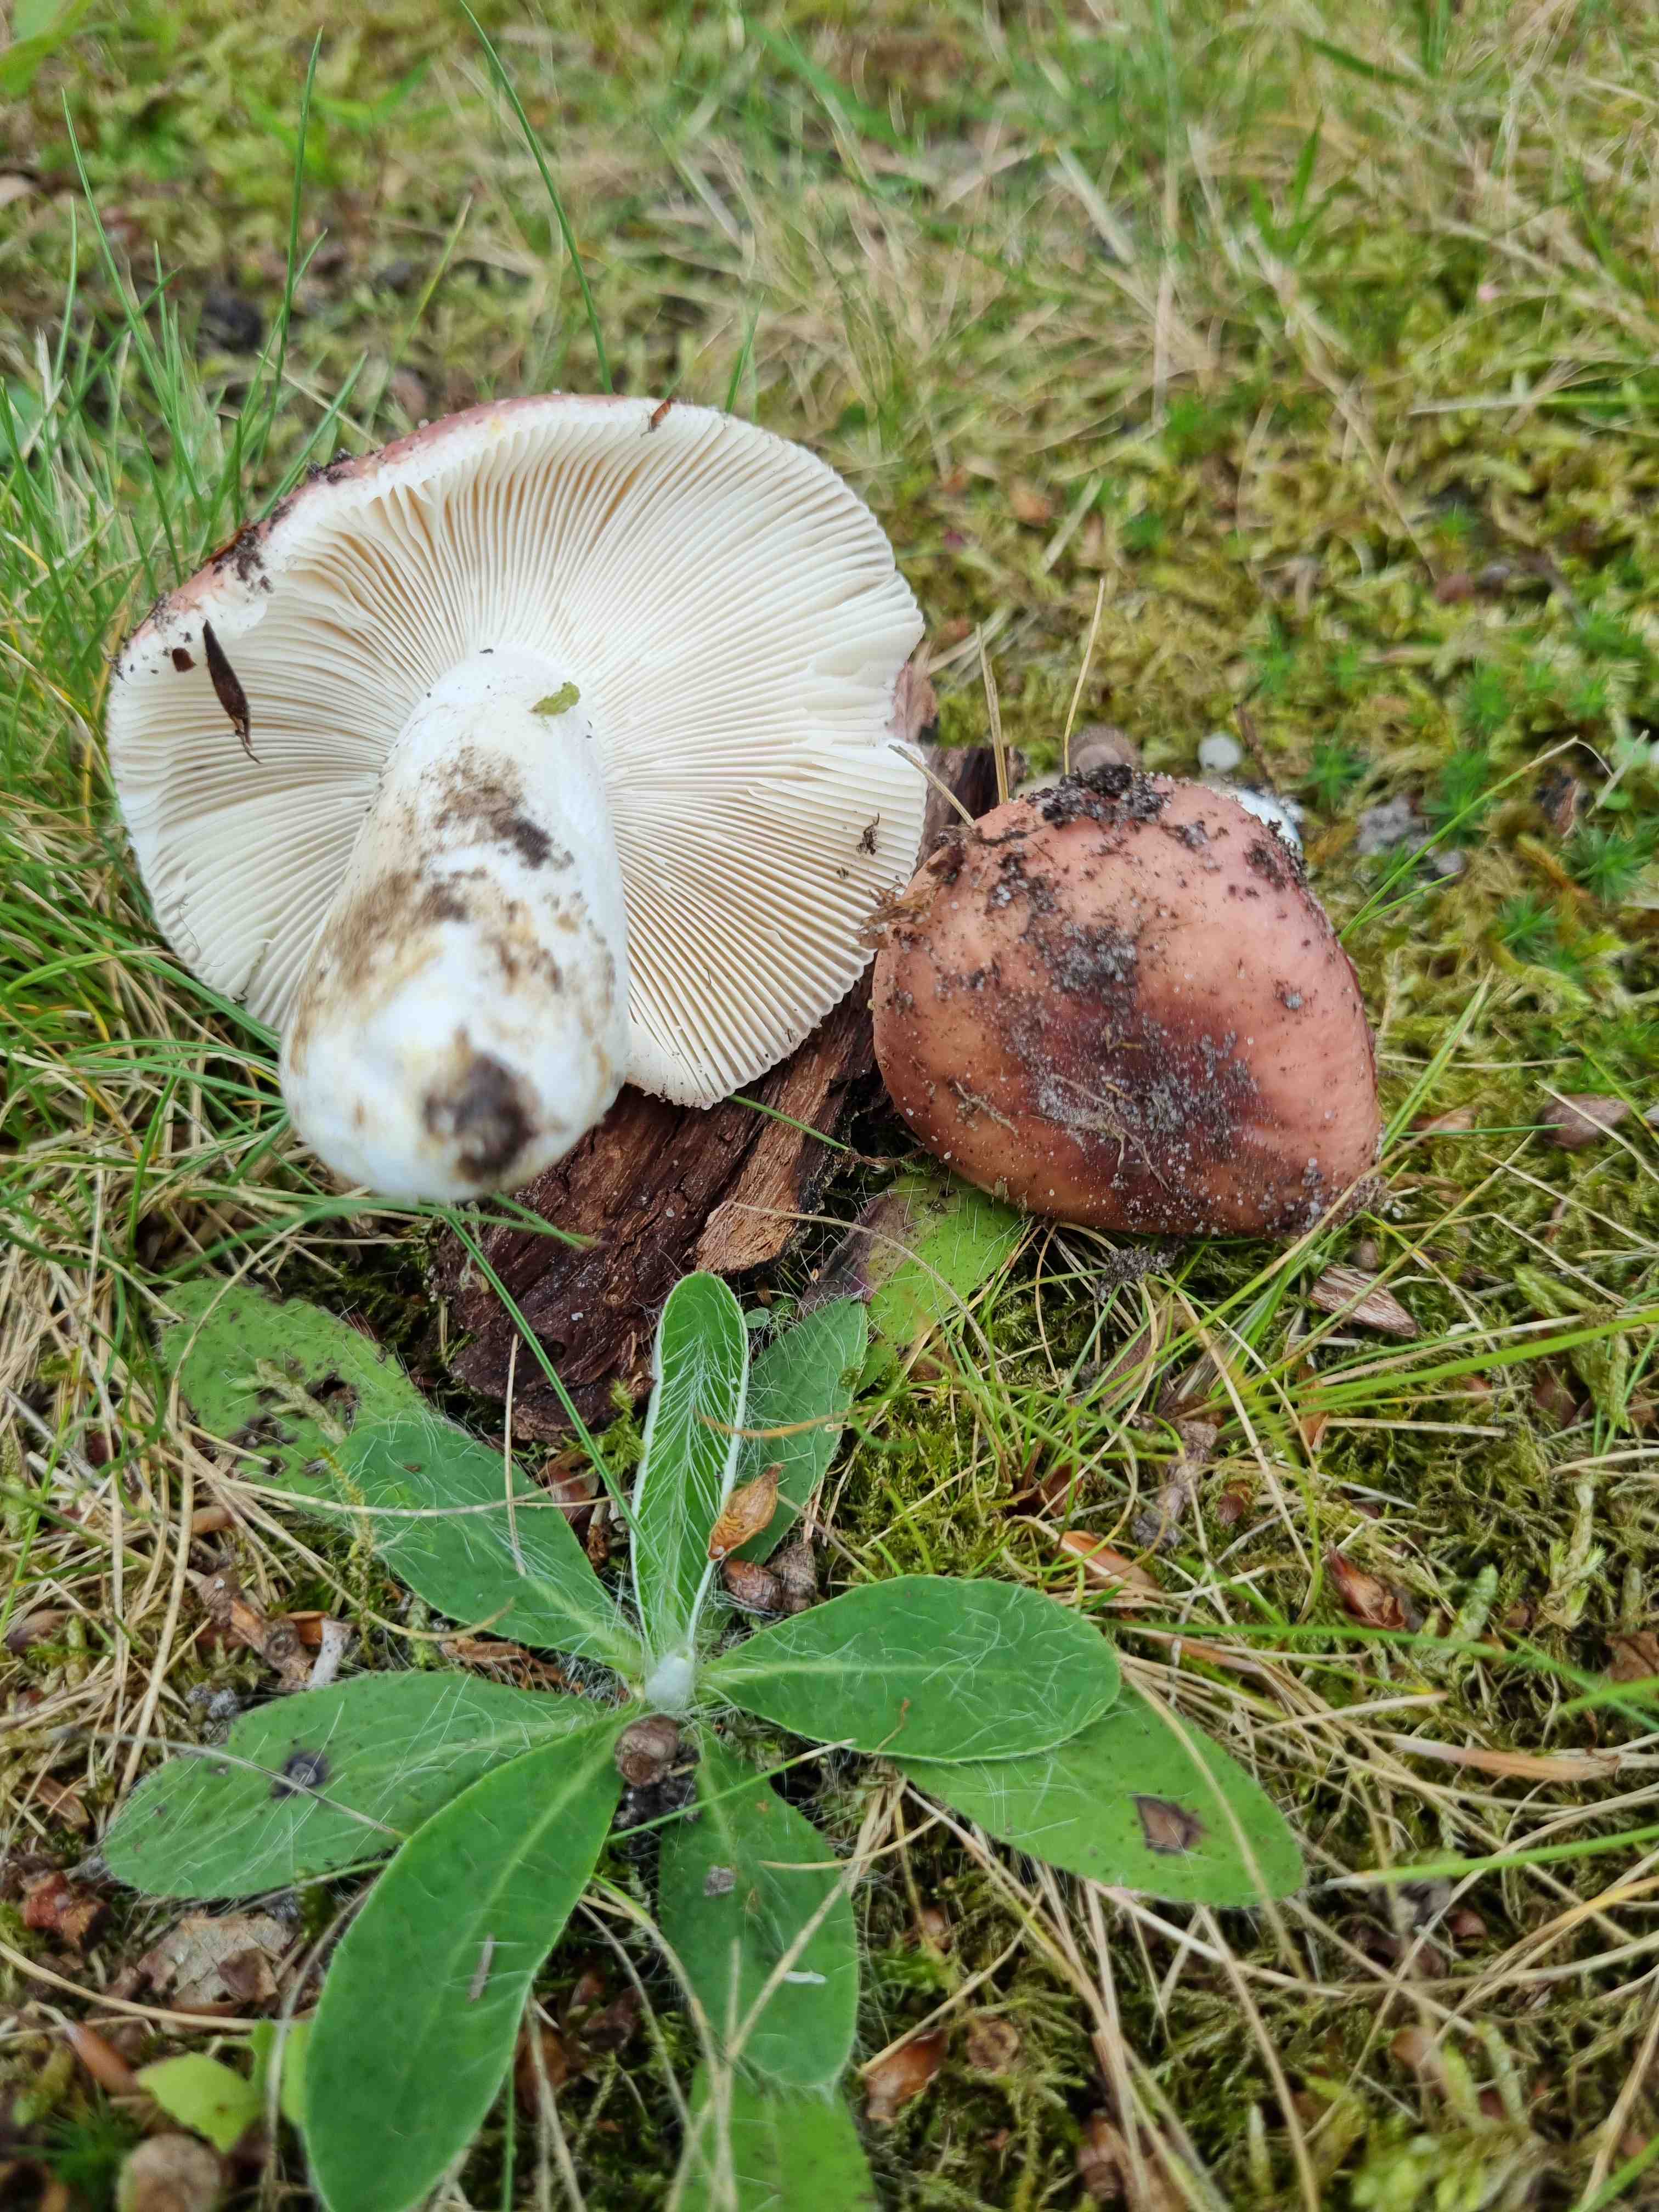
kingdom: Fungi
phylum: Basidiomycota
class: Agaricomycetes
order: Russulales
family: Russulaceae
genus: Russula
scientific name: Russula vesca
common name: spiselig skørhat
